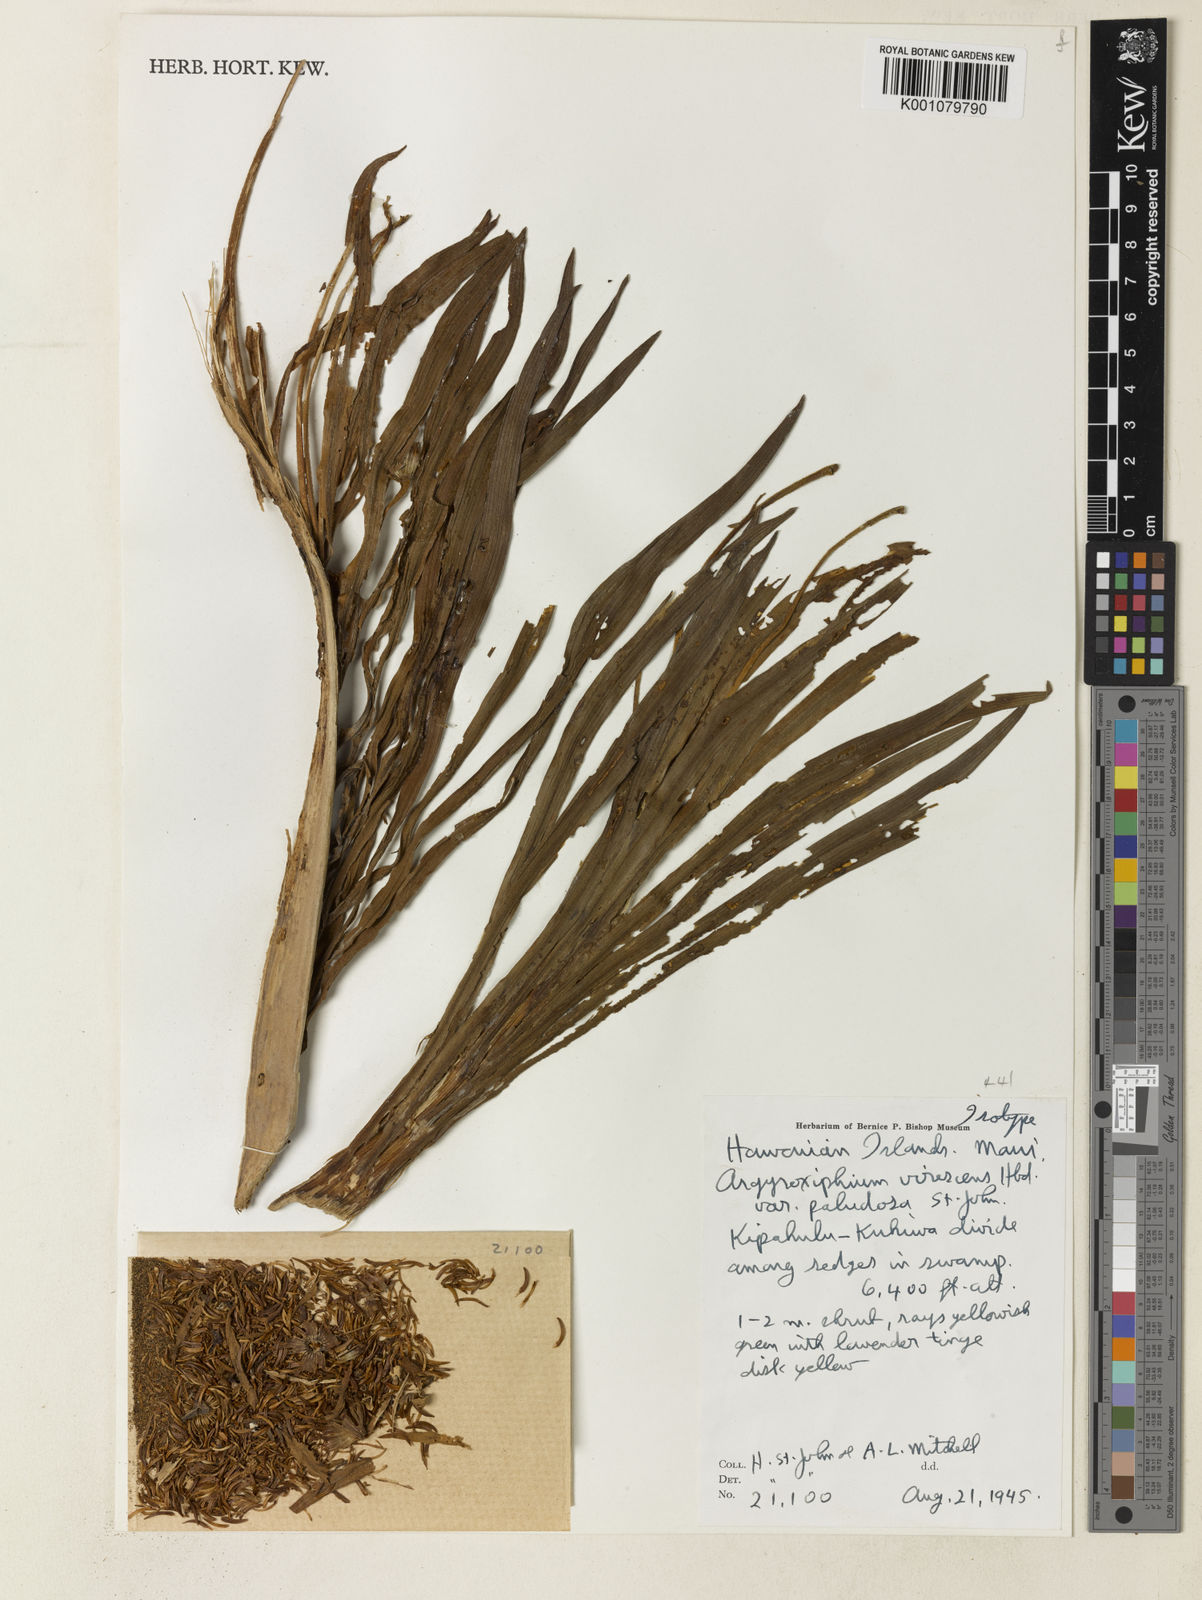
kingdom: Plantae
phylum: Tracheophyta
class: Magnoliopsida
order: Asterales
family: Asteraceae
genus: Argyroxiphium
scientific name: Argyroxiphium virescens
